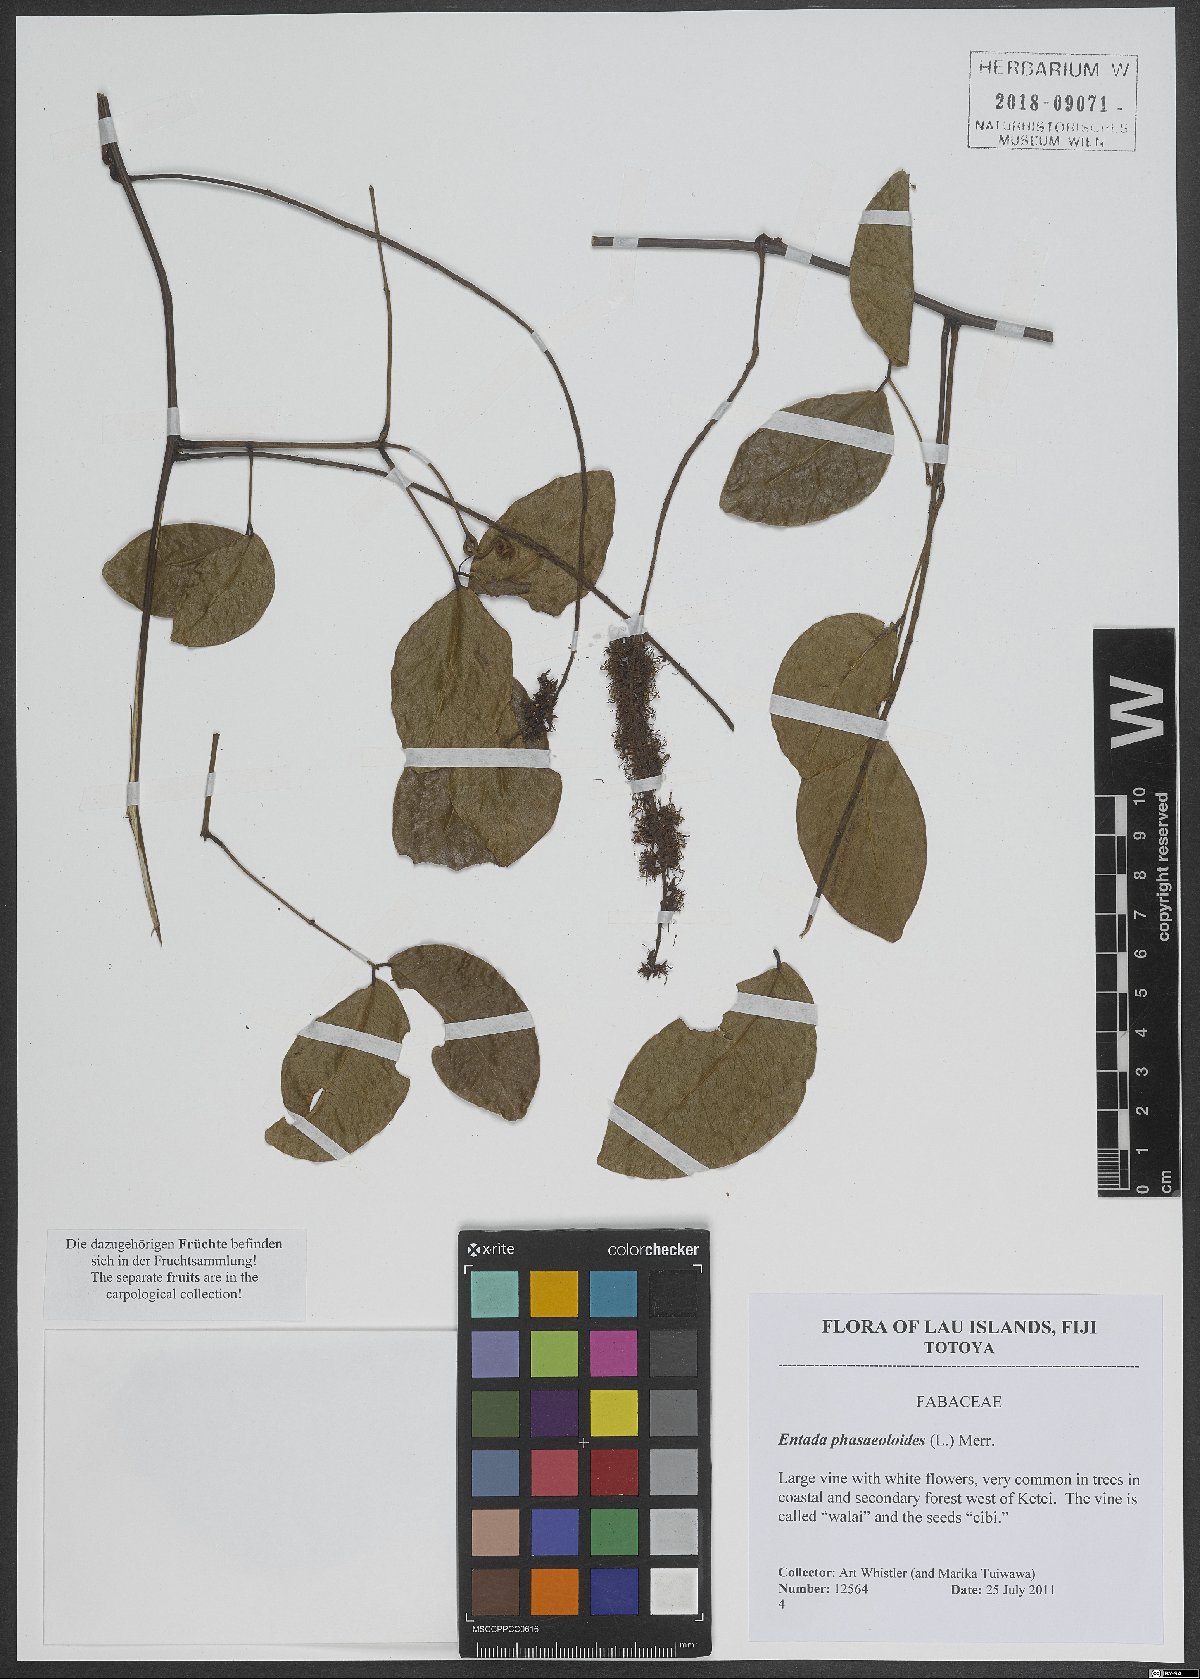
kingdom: Plantae
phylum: Tracheophyta
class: Magnoliopsida
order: Fabales
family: Fabaceae
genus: Entada
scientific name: Entada phaseoloides
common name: Matchbox-bean
